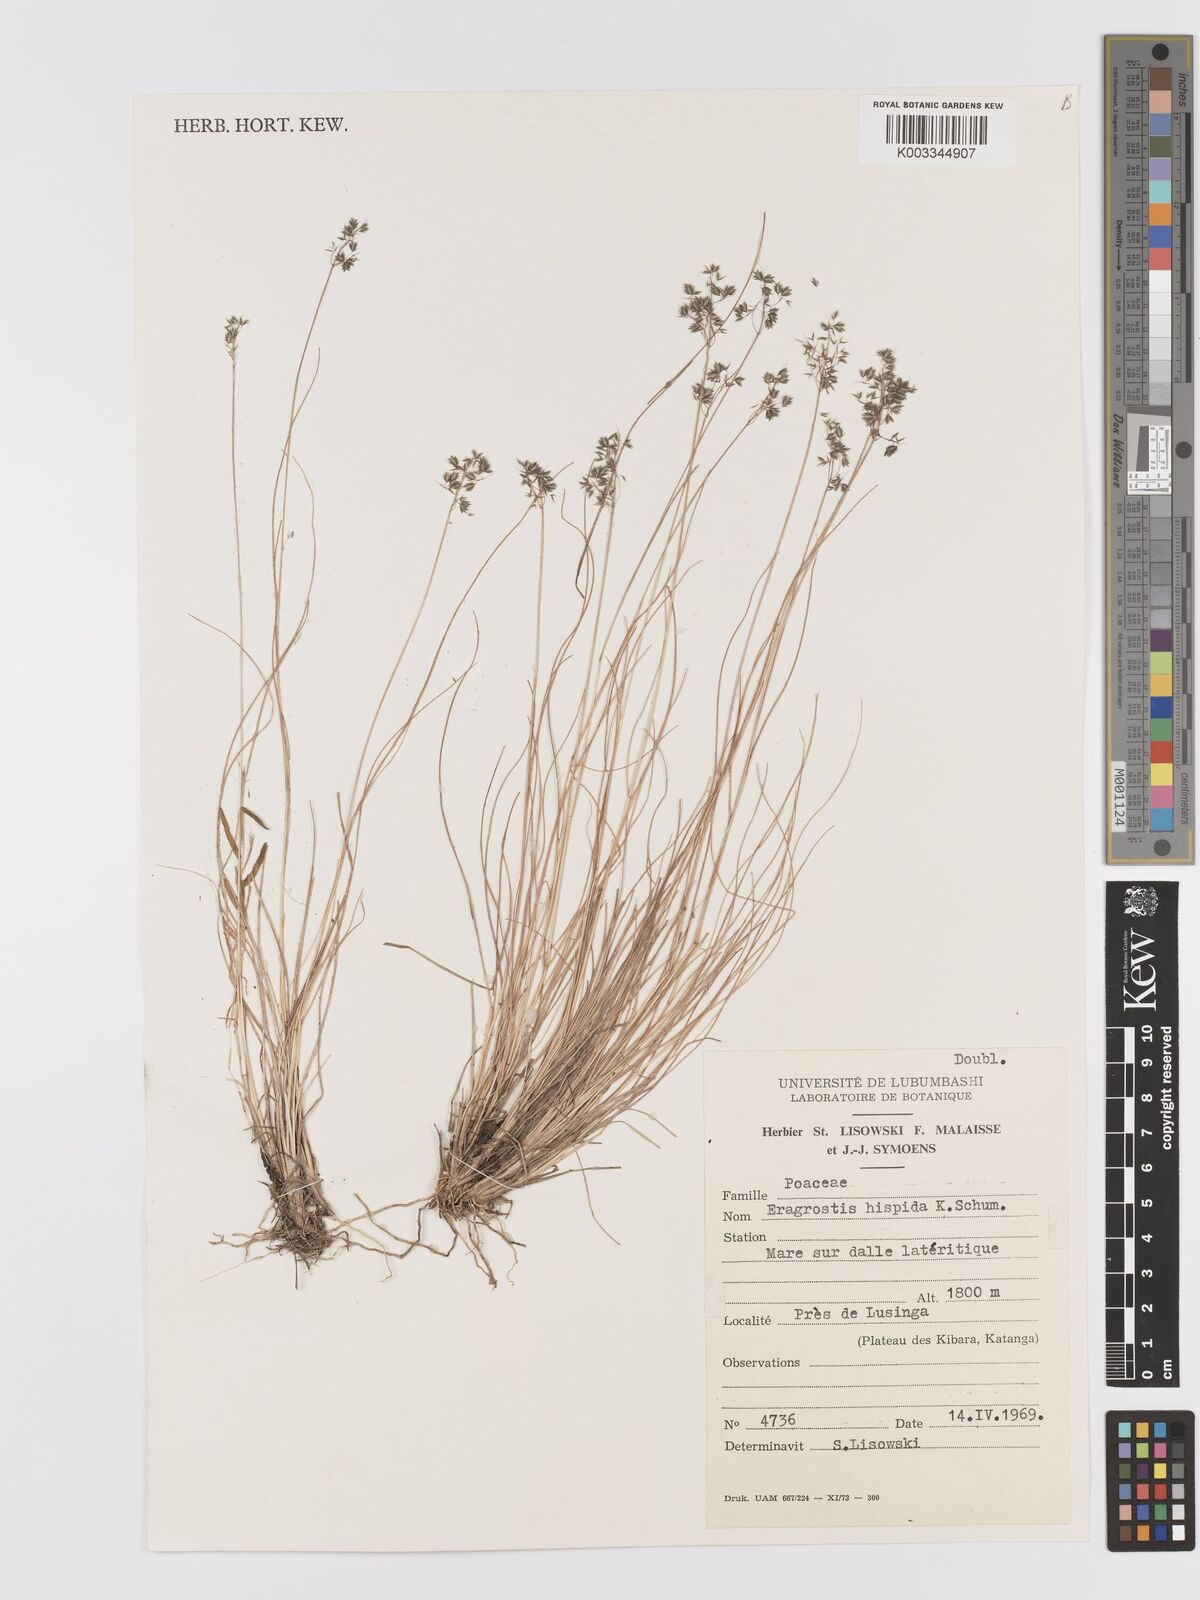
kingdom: Plantae
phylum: Tracheophyta
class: Liliopsida
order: Poales
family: Poaceae
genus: Eragrostis
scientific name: Eragrostis hispida
